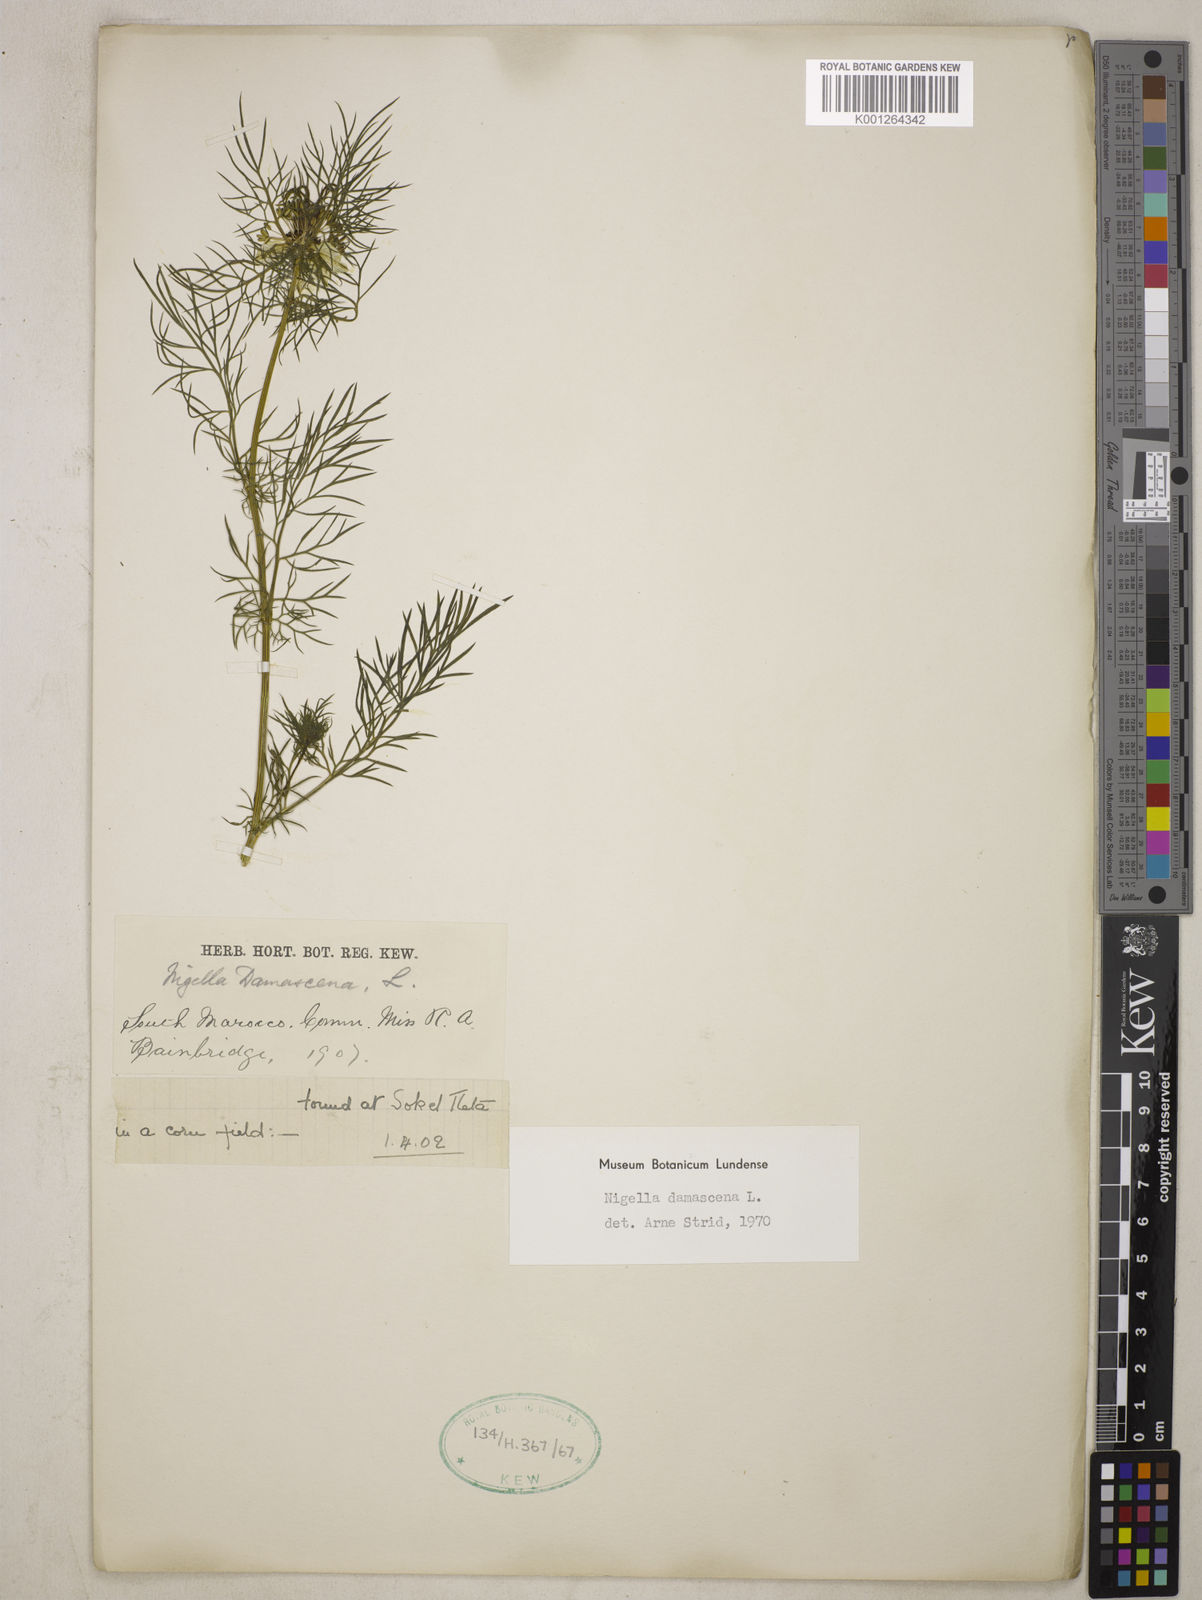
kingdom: Plantae
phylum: Tracheophyta
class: Magnoliopsida
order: Ranunculales
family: Ranunculaceae
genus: Nigella
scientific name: Nigella damascena
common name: Love-in-a-mist
